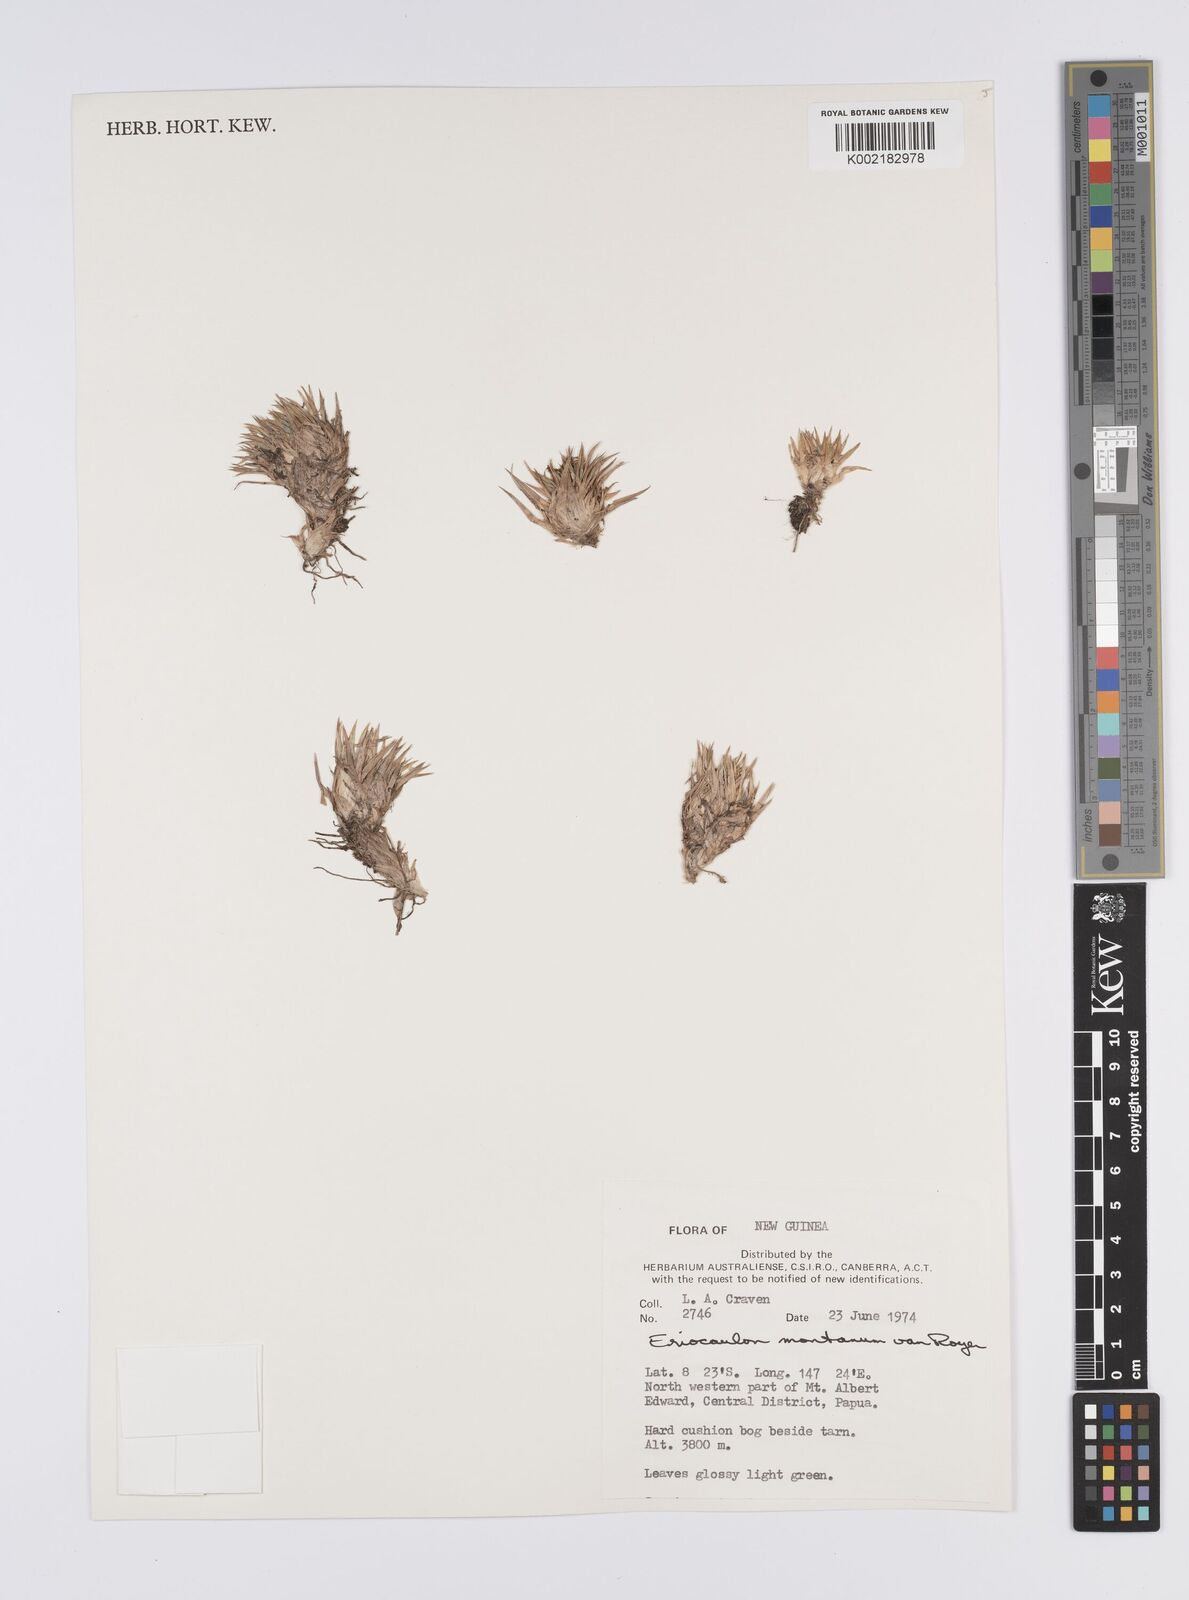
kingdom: Plantae
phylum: Tracheophyta
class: Liliopsida
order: Poales
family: Eriocaulaceae
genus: Eriocaulon
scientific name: Eriocaulon montanum
